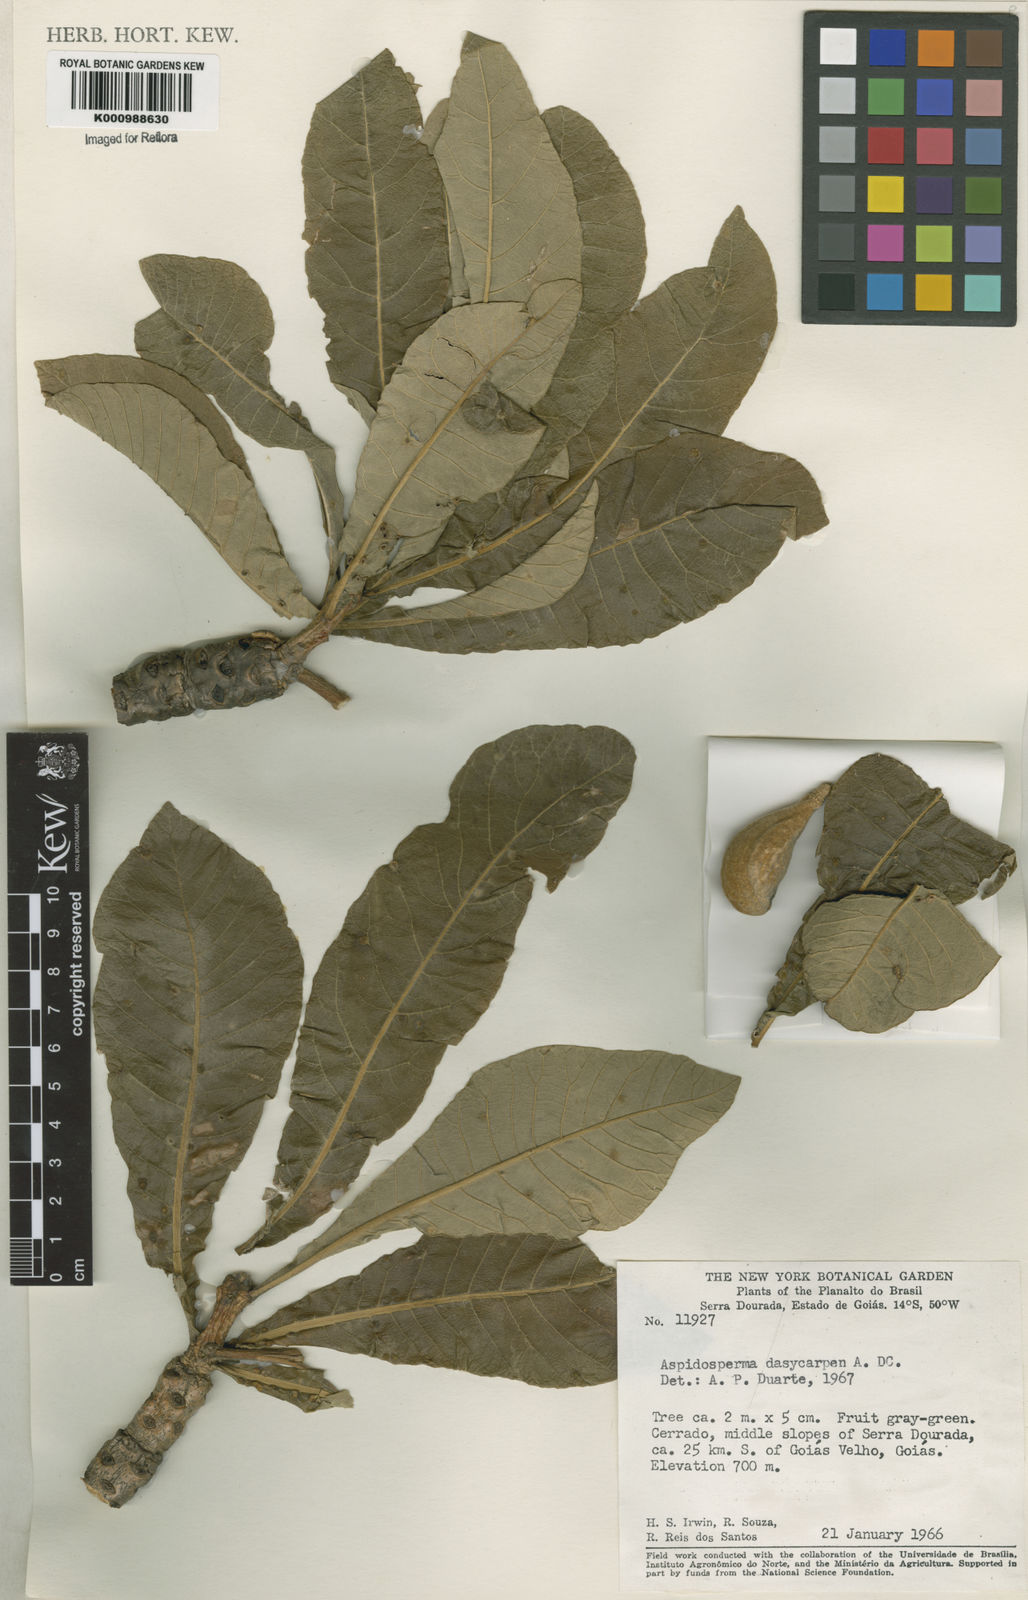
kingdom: Plantae
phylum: Tracheophyta
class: Magnoliopsida
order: Gentianales
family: Apocynaceae
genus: Aspidosperma
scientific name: Aspidosperma tomentosum
